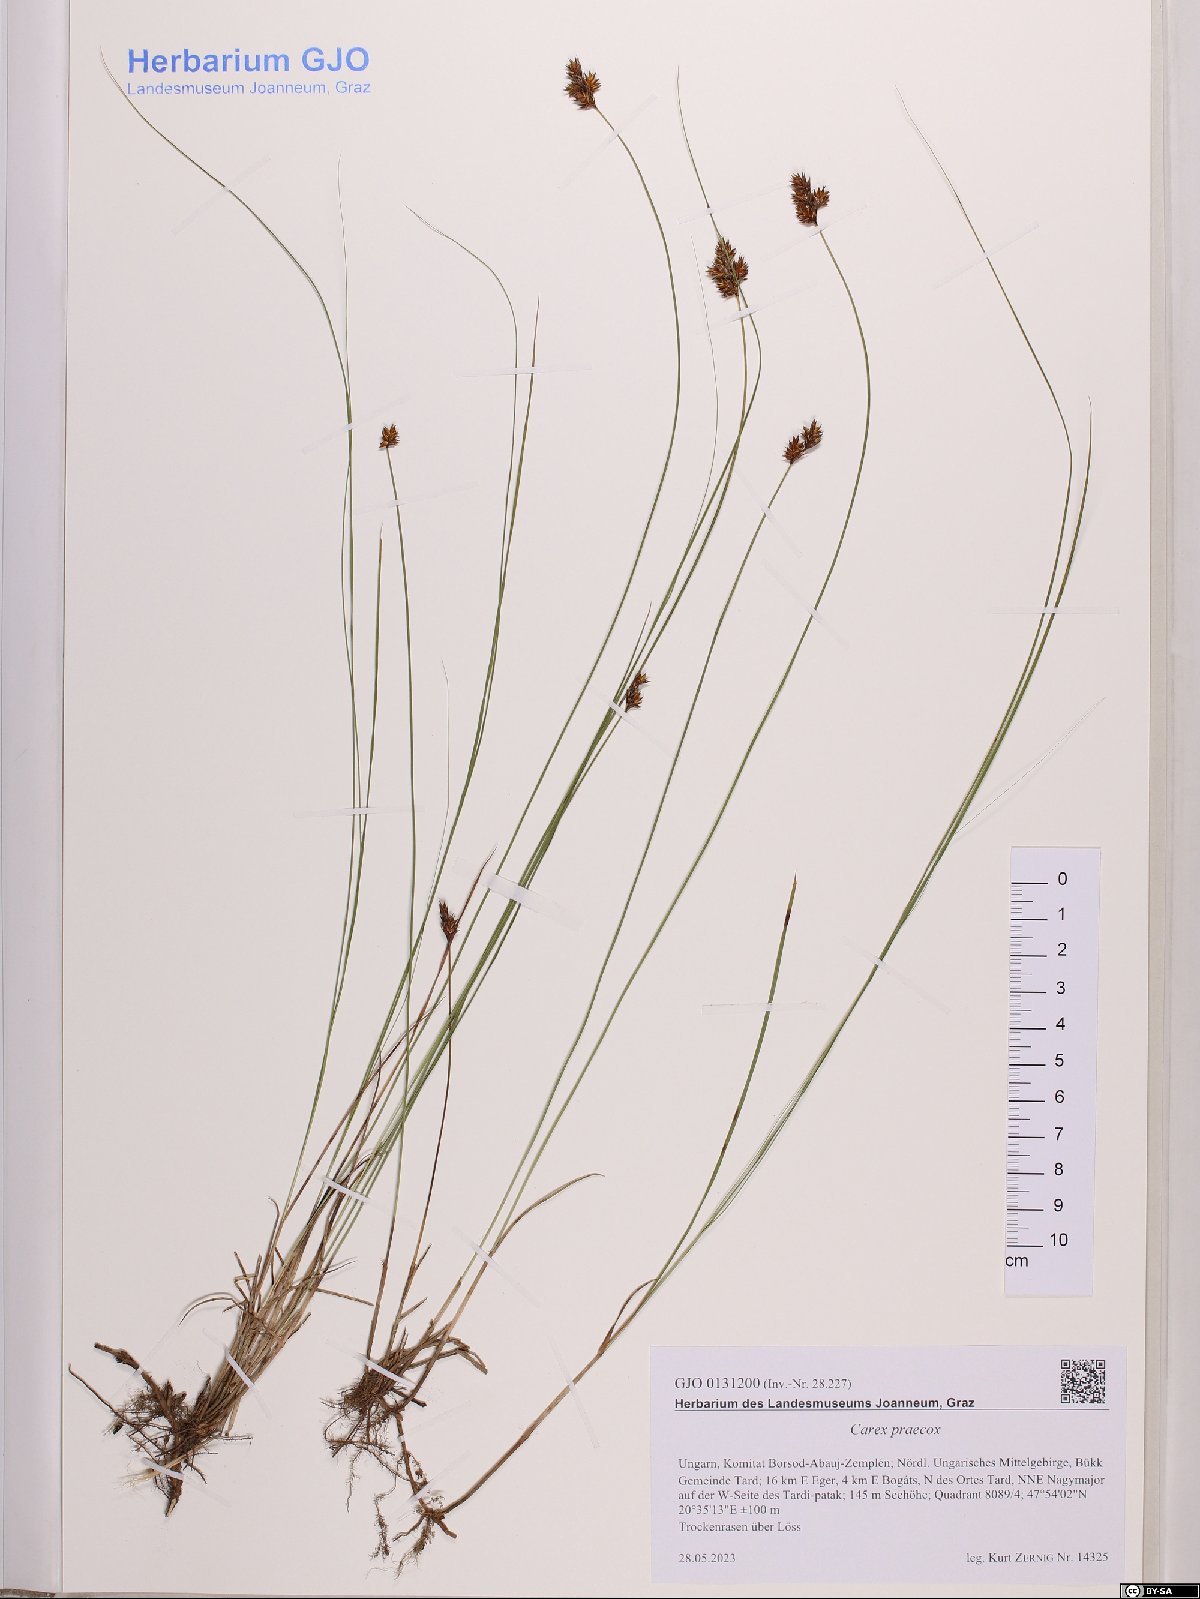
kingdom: Plantae
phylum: Tracheophyta
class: Liliopsida
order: Poales
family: Cyperaceae
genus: Carex
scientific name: Carex praecox
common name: Early sedge
